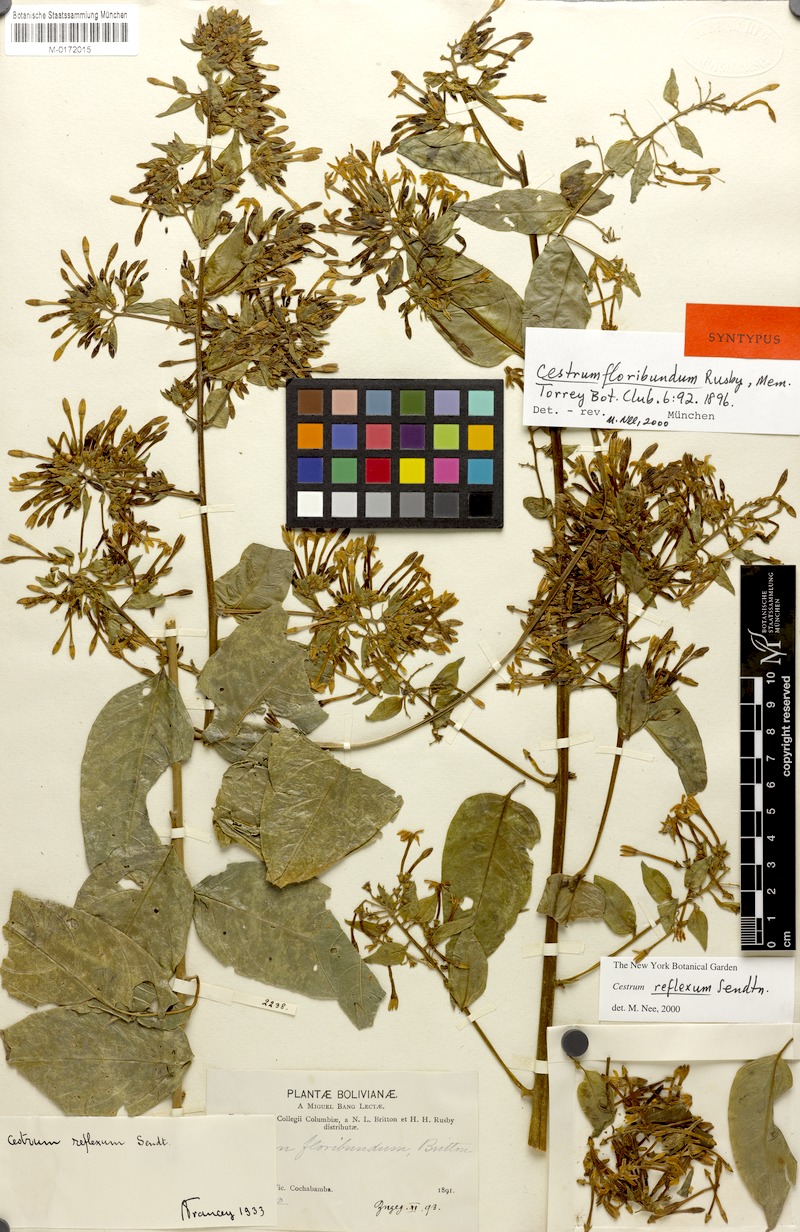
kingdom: Plantae
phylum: Tracheophyta
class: Magnoliopsida
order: Solanales
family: Solanaceae
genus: Cestrum
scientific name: Cestrum reflexum
